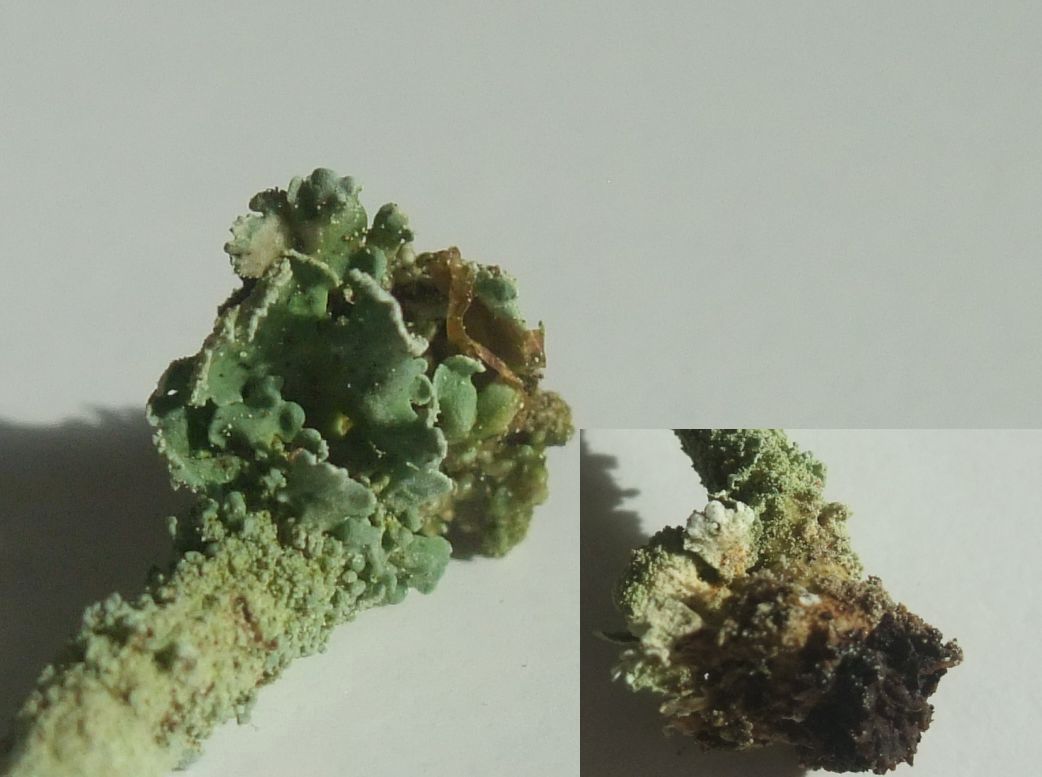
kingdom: Fungi
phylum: Ascomycota
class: Lecanoromycetes
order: Lecanorales
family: Cladoniaceae
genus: Cladonia
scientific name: Cladonia digitata
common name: finger-bægerlav
